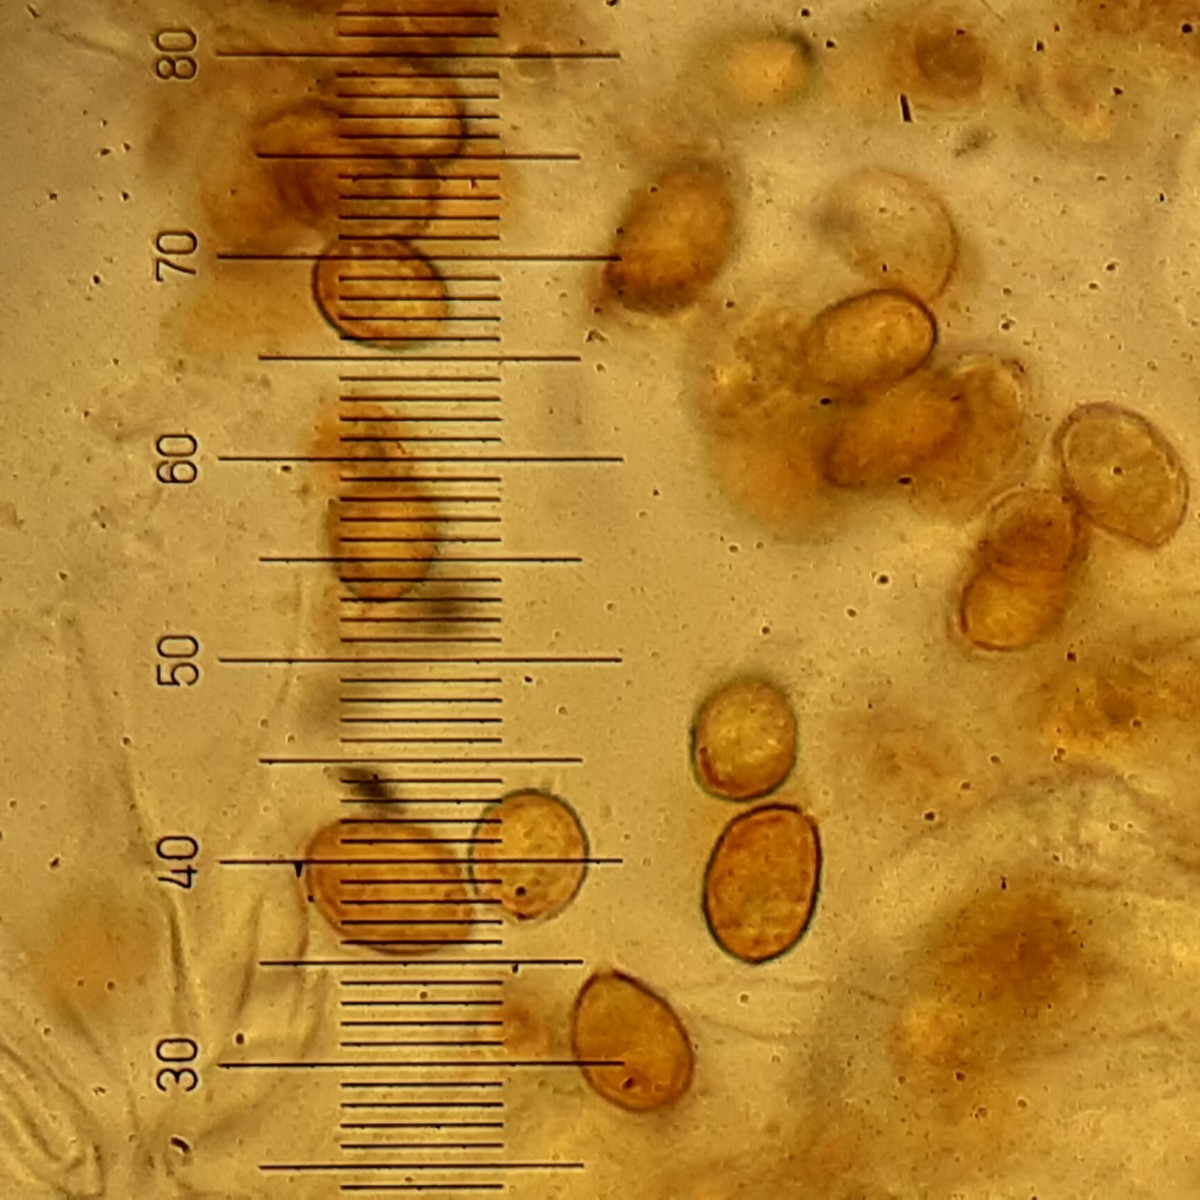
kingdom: Fungi
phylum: Basidiomycota
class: Agaricomycetes
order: Agaricales
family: Cortinariaceae
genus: Cortinarius
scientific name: Cortinarius hinnuleus
